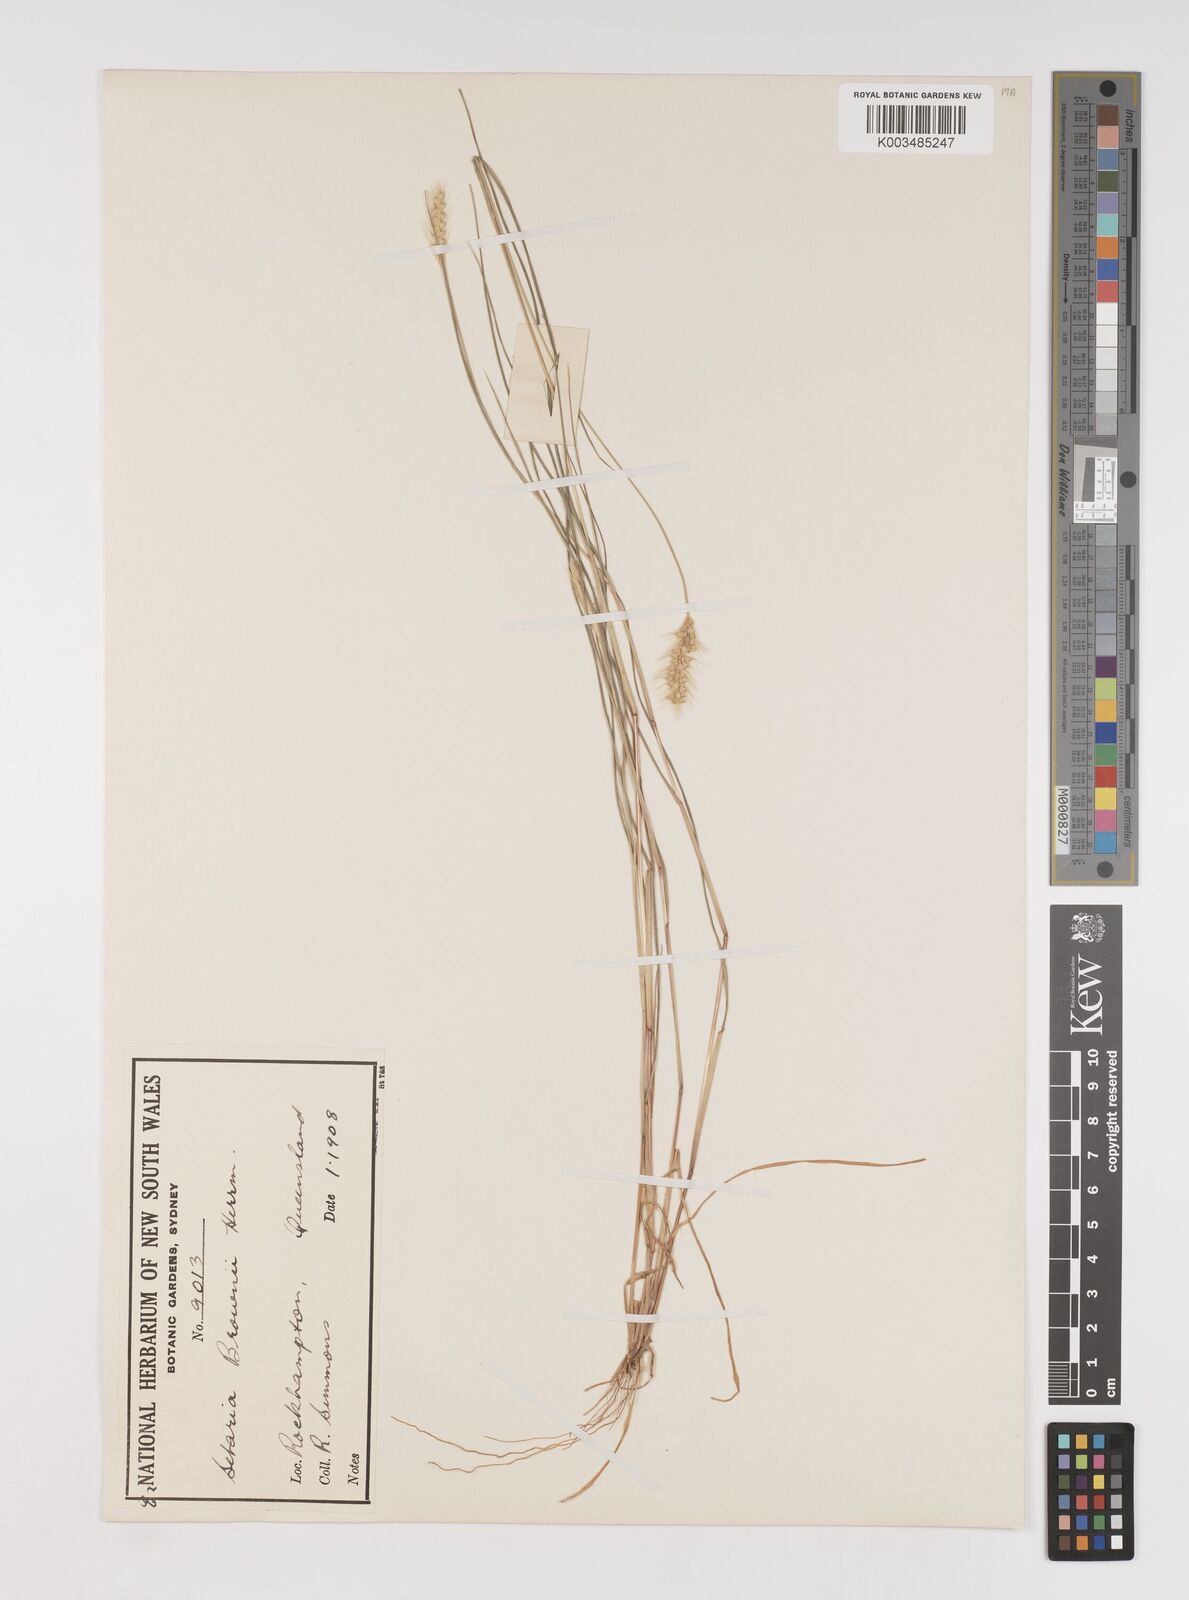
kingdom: Plantae
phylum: Tracheophyta
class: Liliopsida
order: Poales
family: Poaceae
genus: Setaria
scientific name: Setaria surgens
